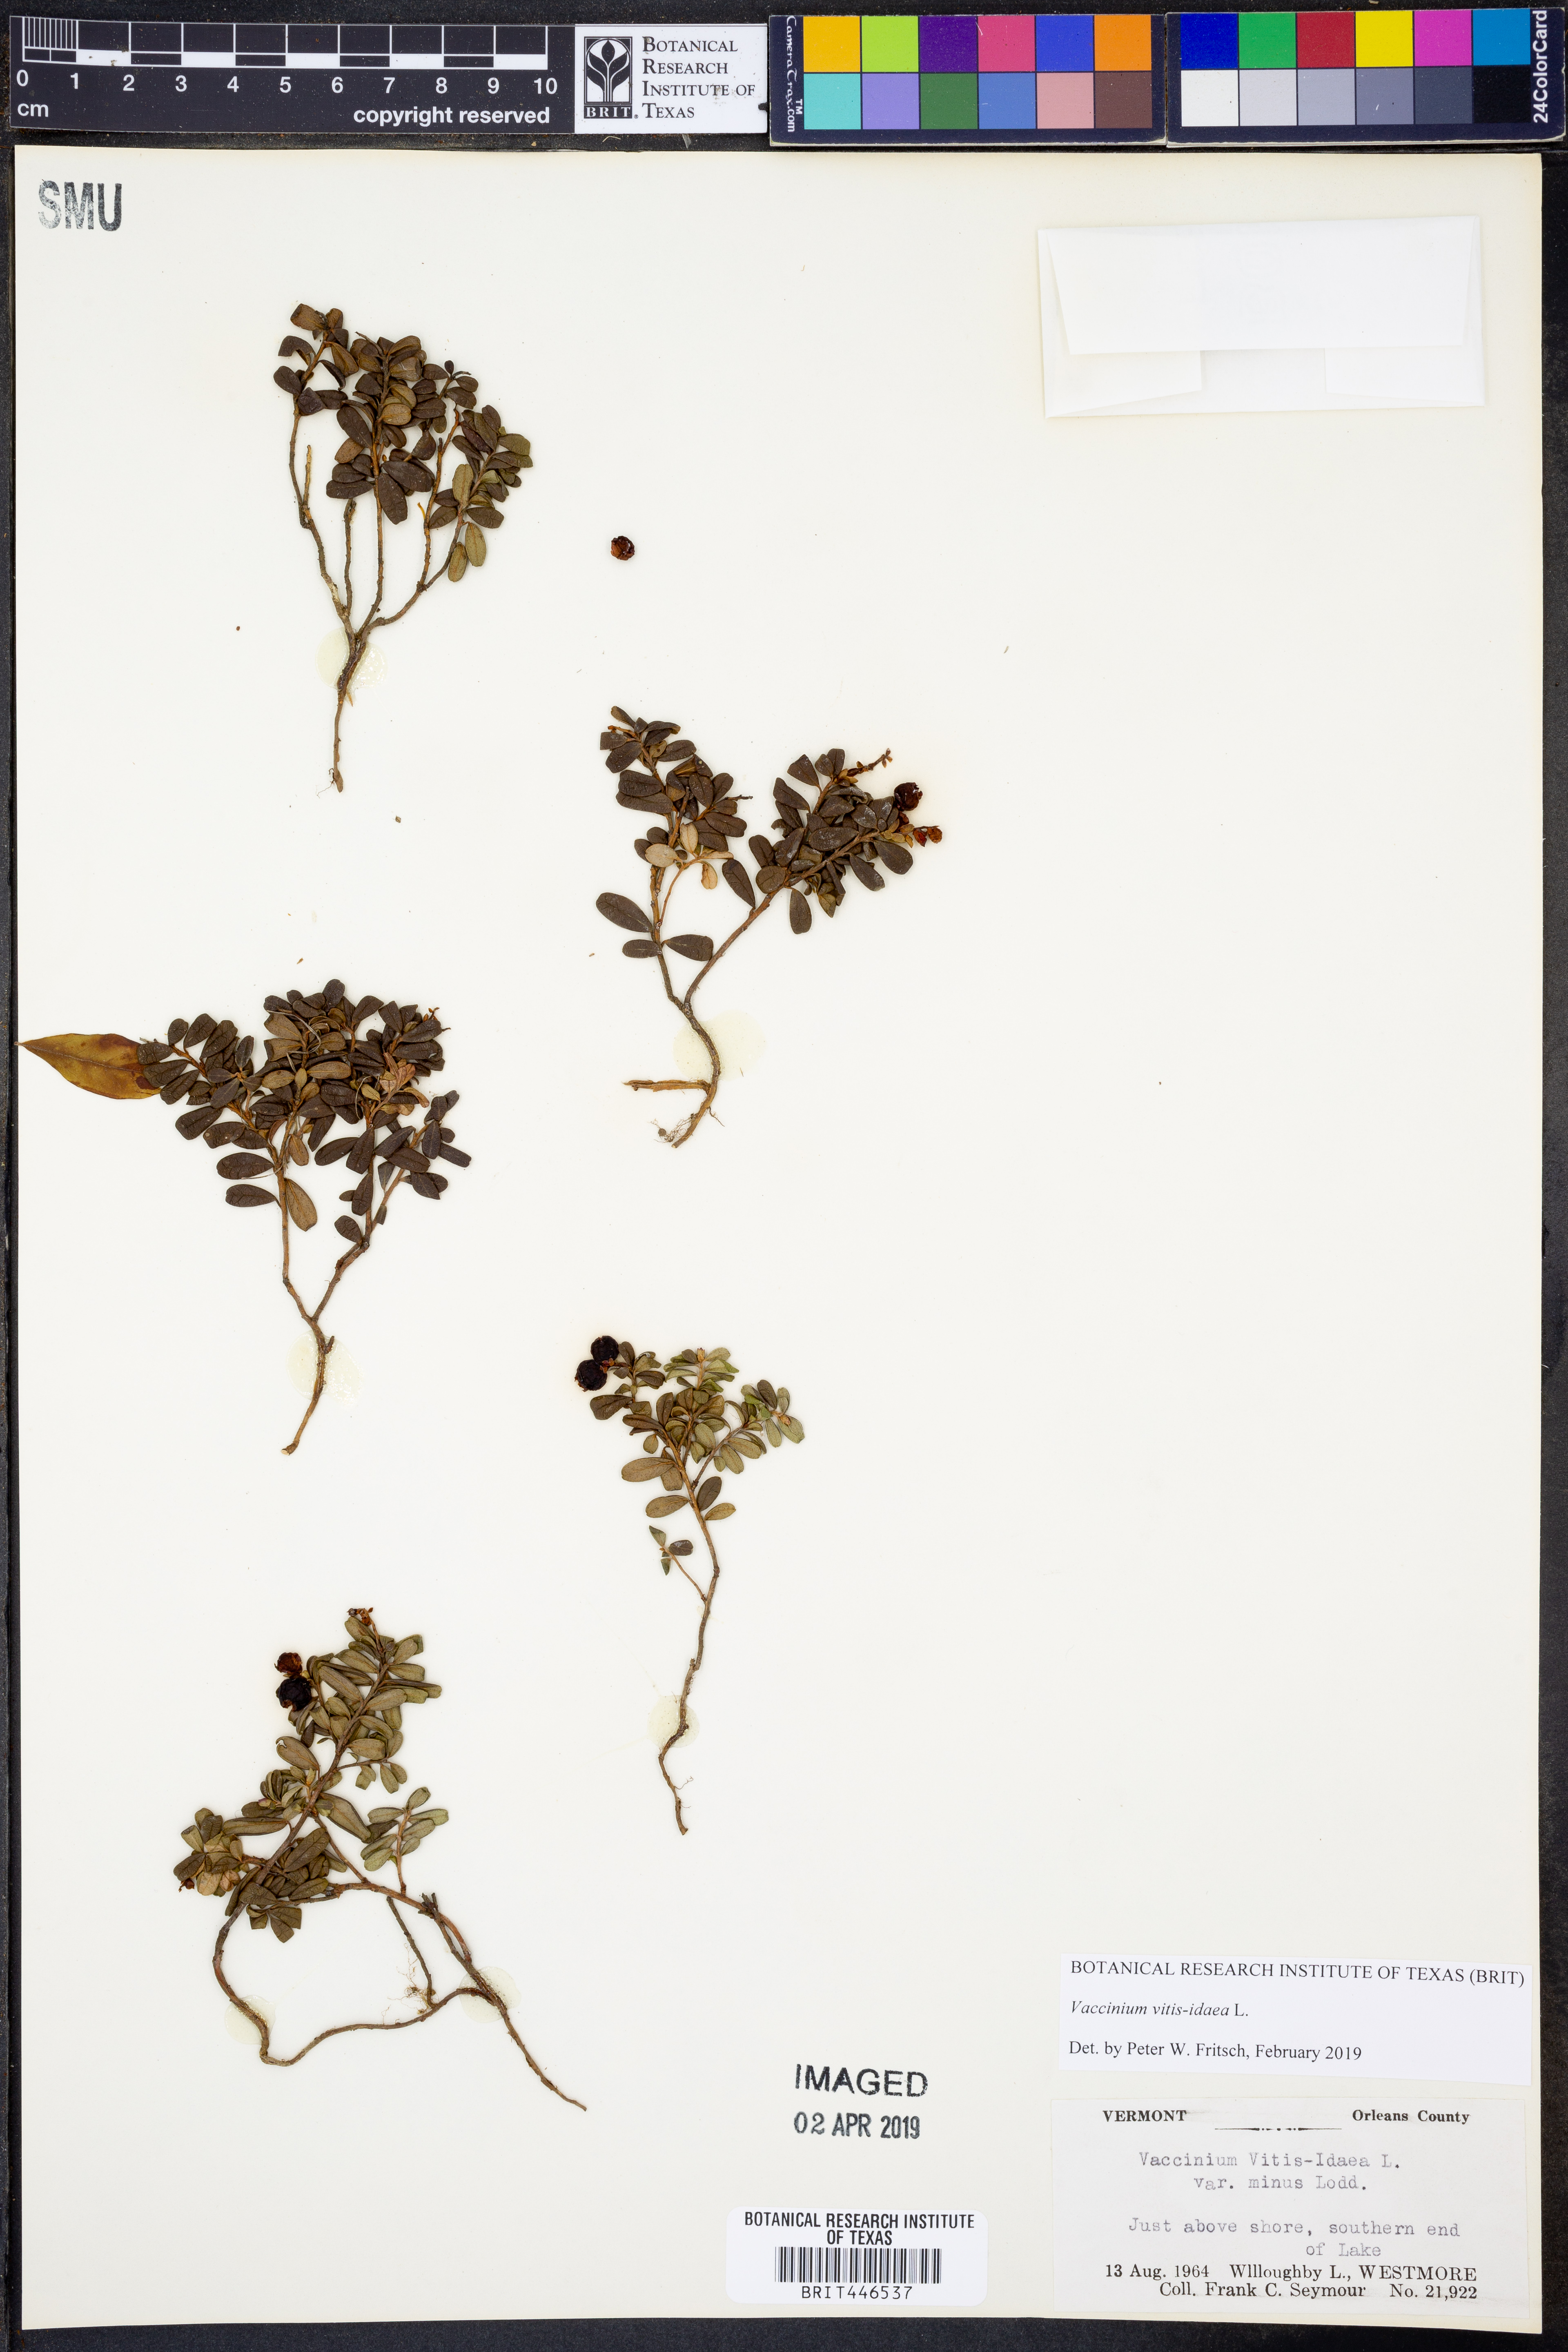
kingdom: Plantae
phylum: Tracheophyta
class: Magnoliopsida
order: Ericales
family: Ericaceae
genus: Vaccinium
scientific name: Vaccinium vitis-idaea
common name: Cowberry
